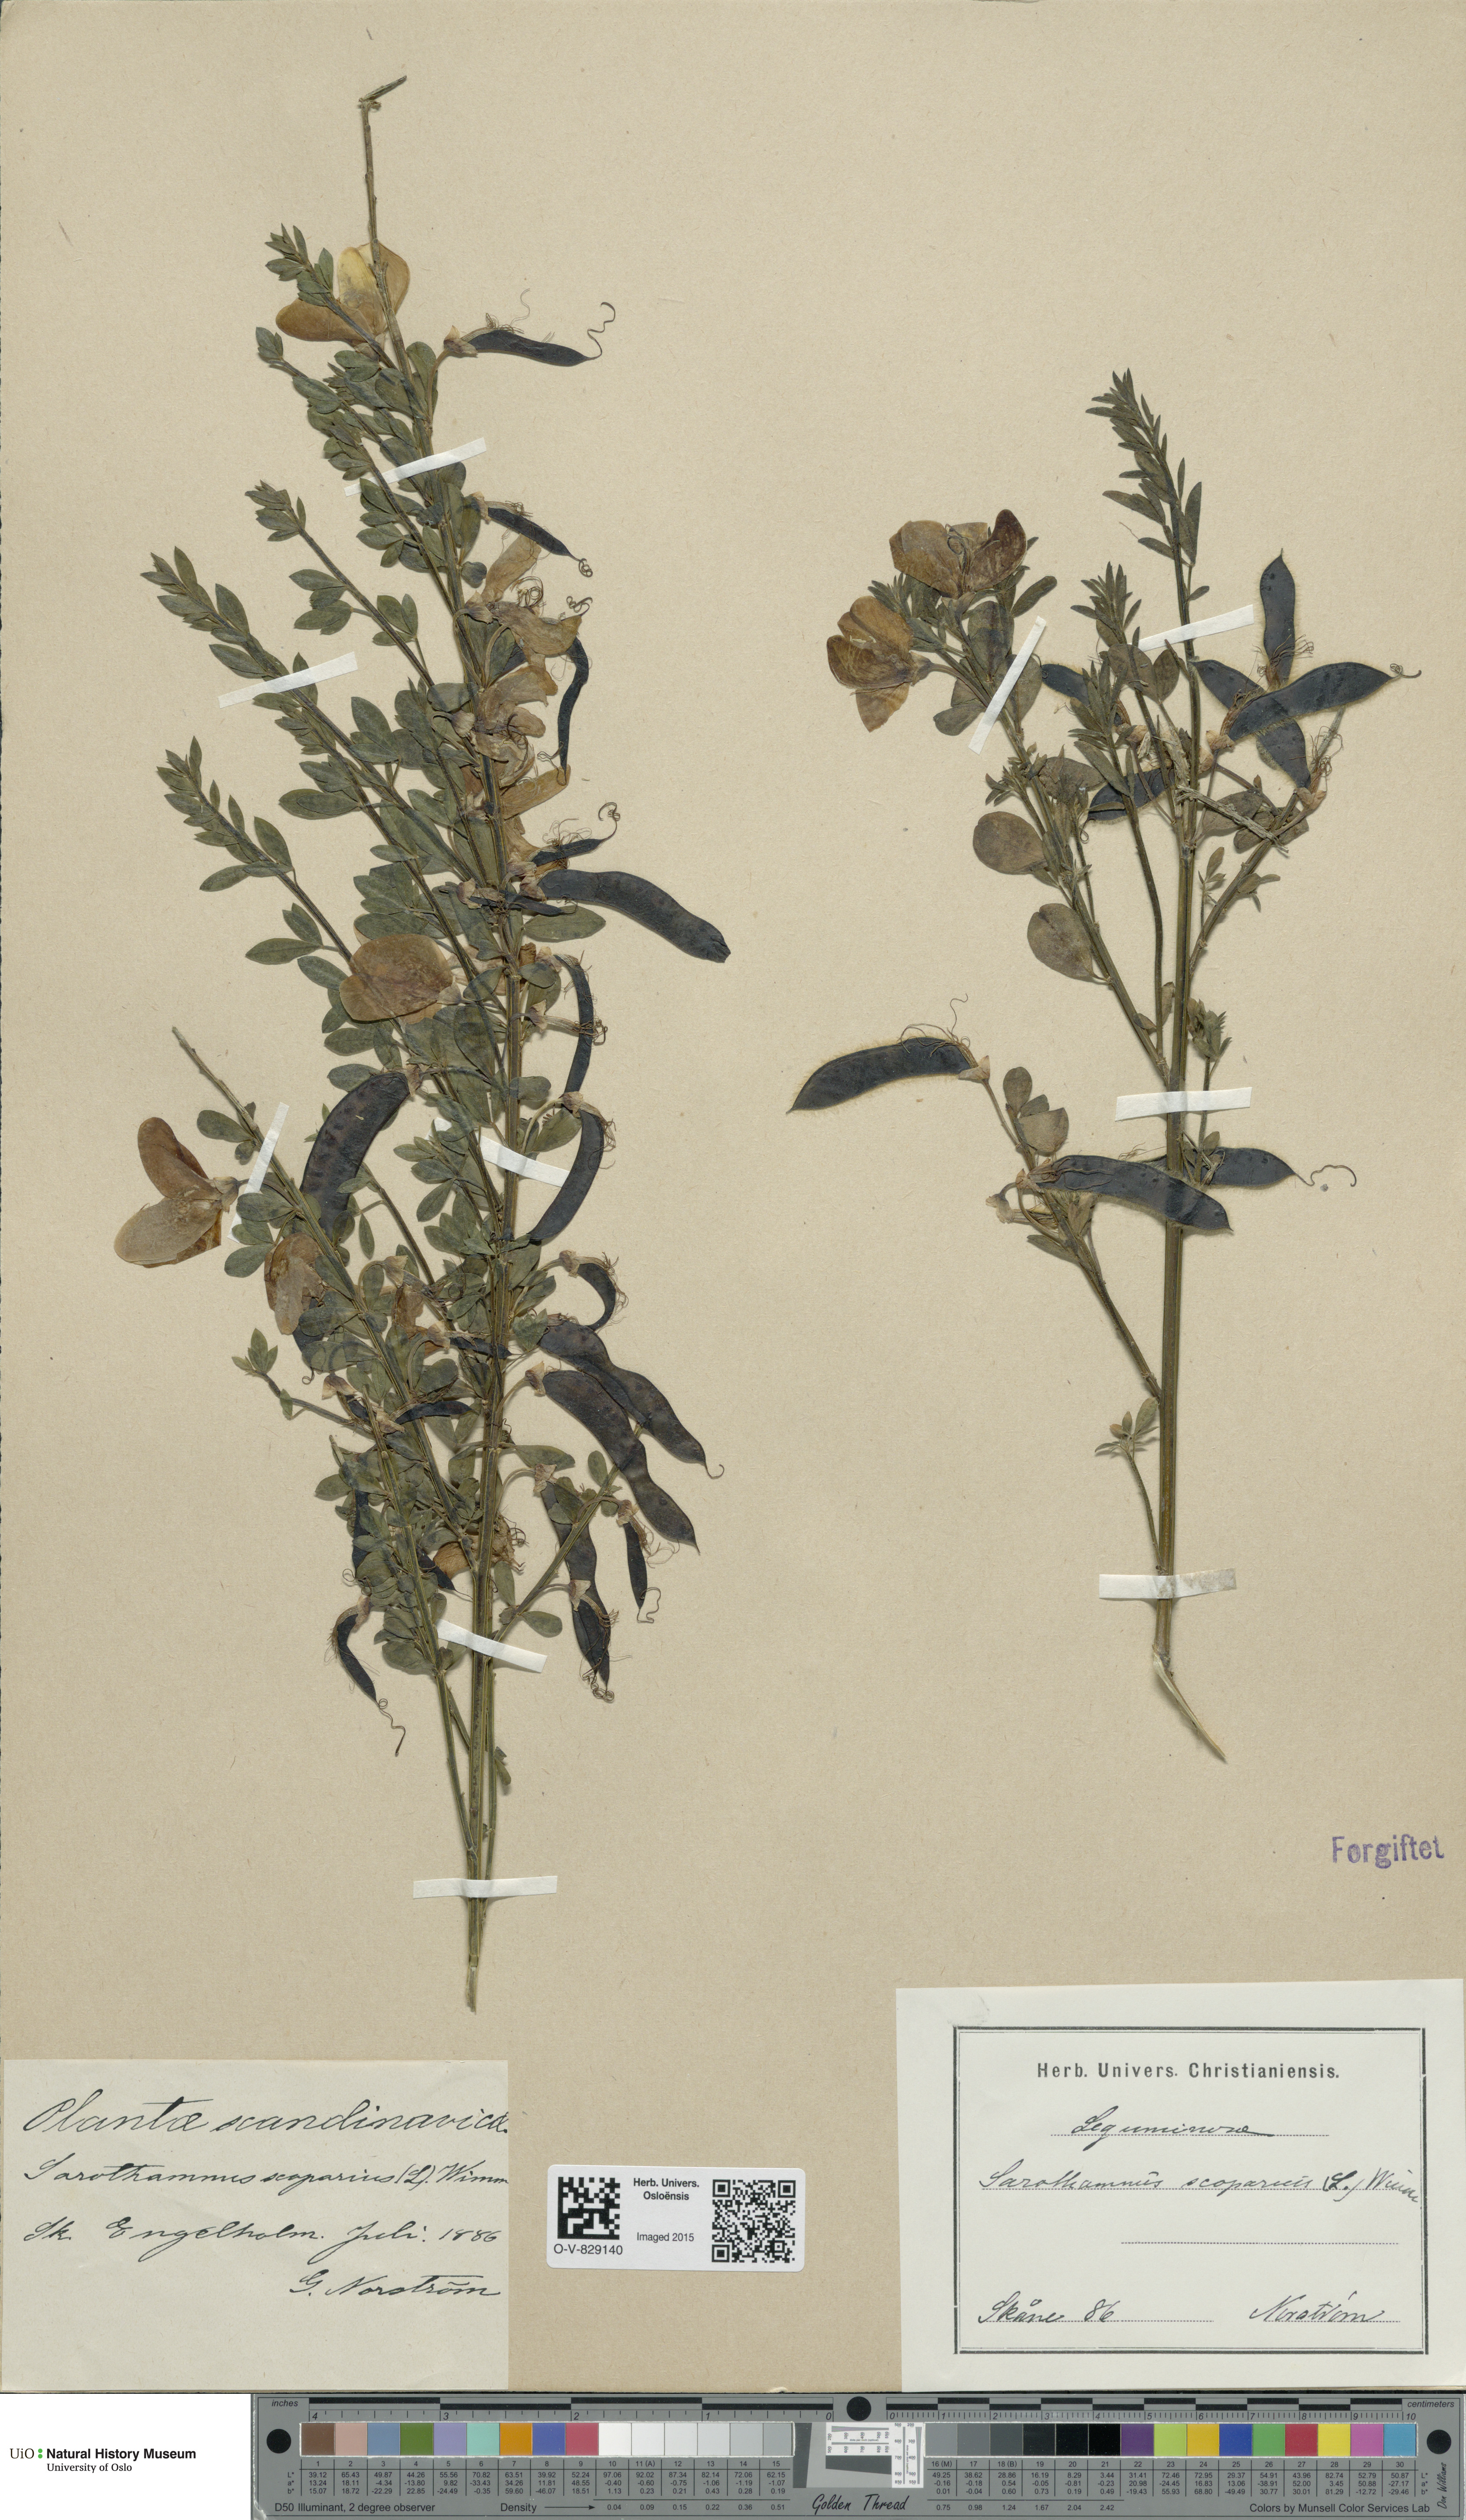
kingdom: Plantae
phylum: Tracheophyta
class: Magnoliopsida
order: Fabales
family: Fabaceae
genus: Cytisus
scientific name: Cytisus scoparius
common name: Scotch broom
